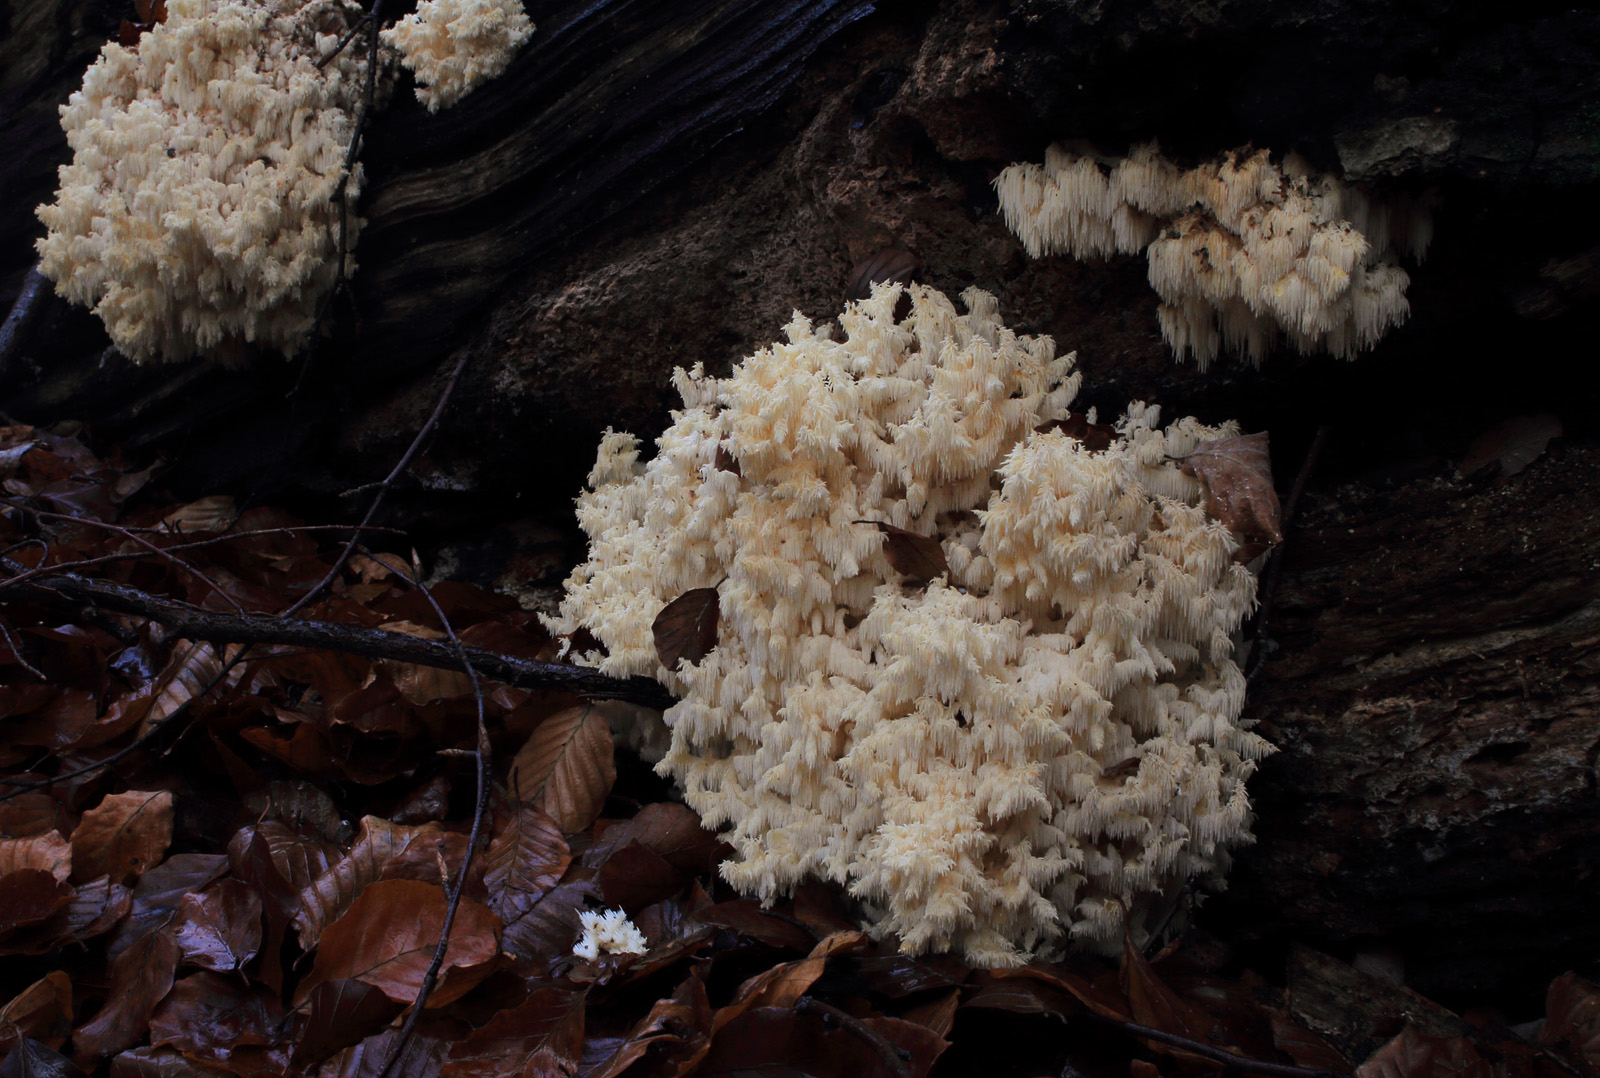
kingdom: Fungi
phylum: Basidiomycota
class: Agaricomycetes
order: Russulales
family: Hericiaceae
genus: Hericium
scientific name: Hericium coralloides
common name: koralpigsvamp
